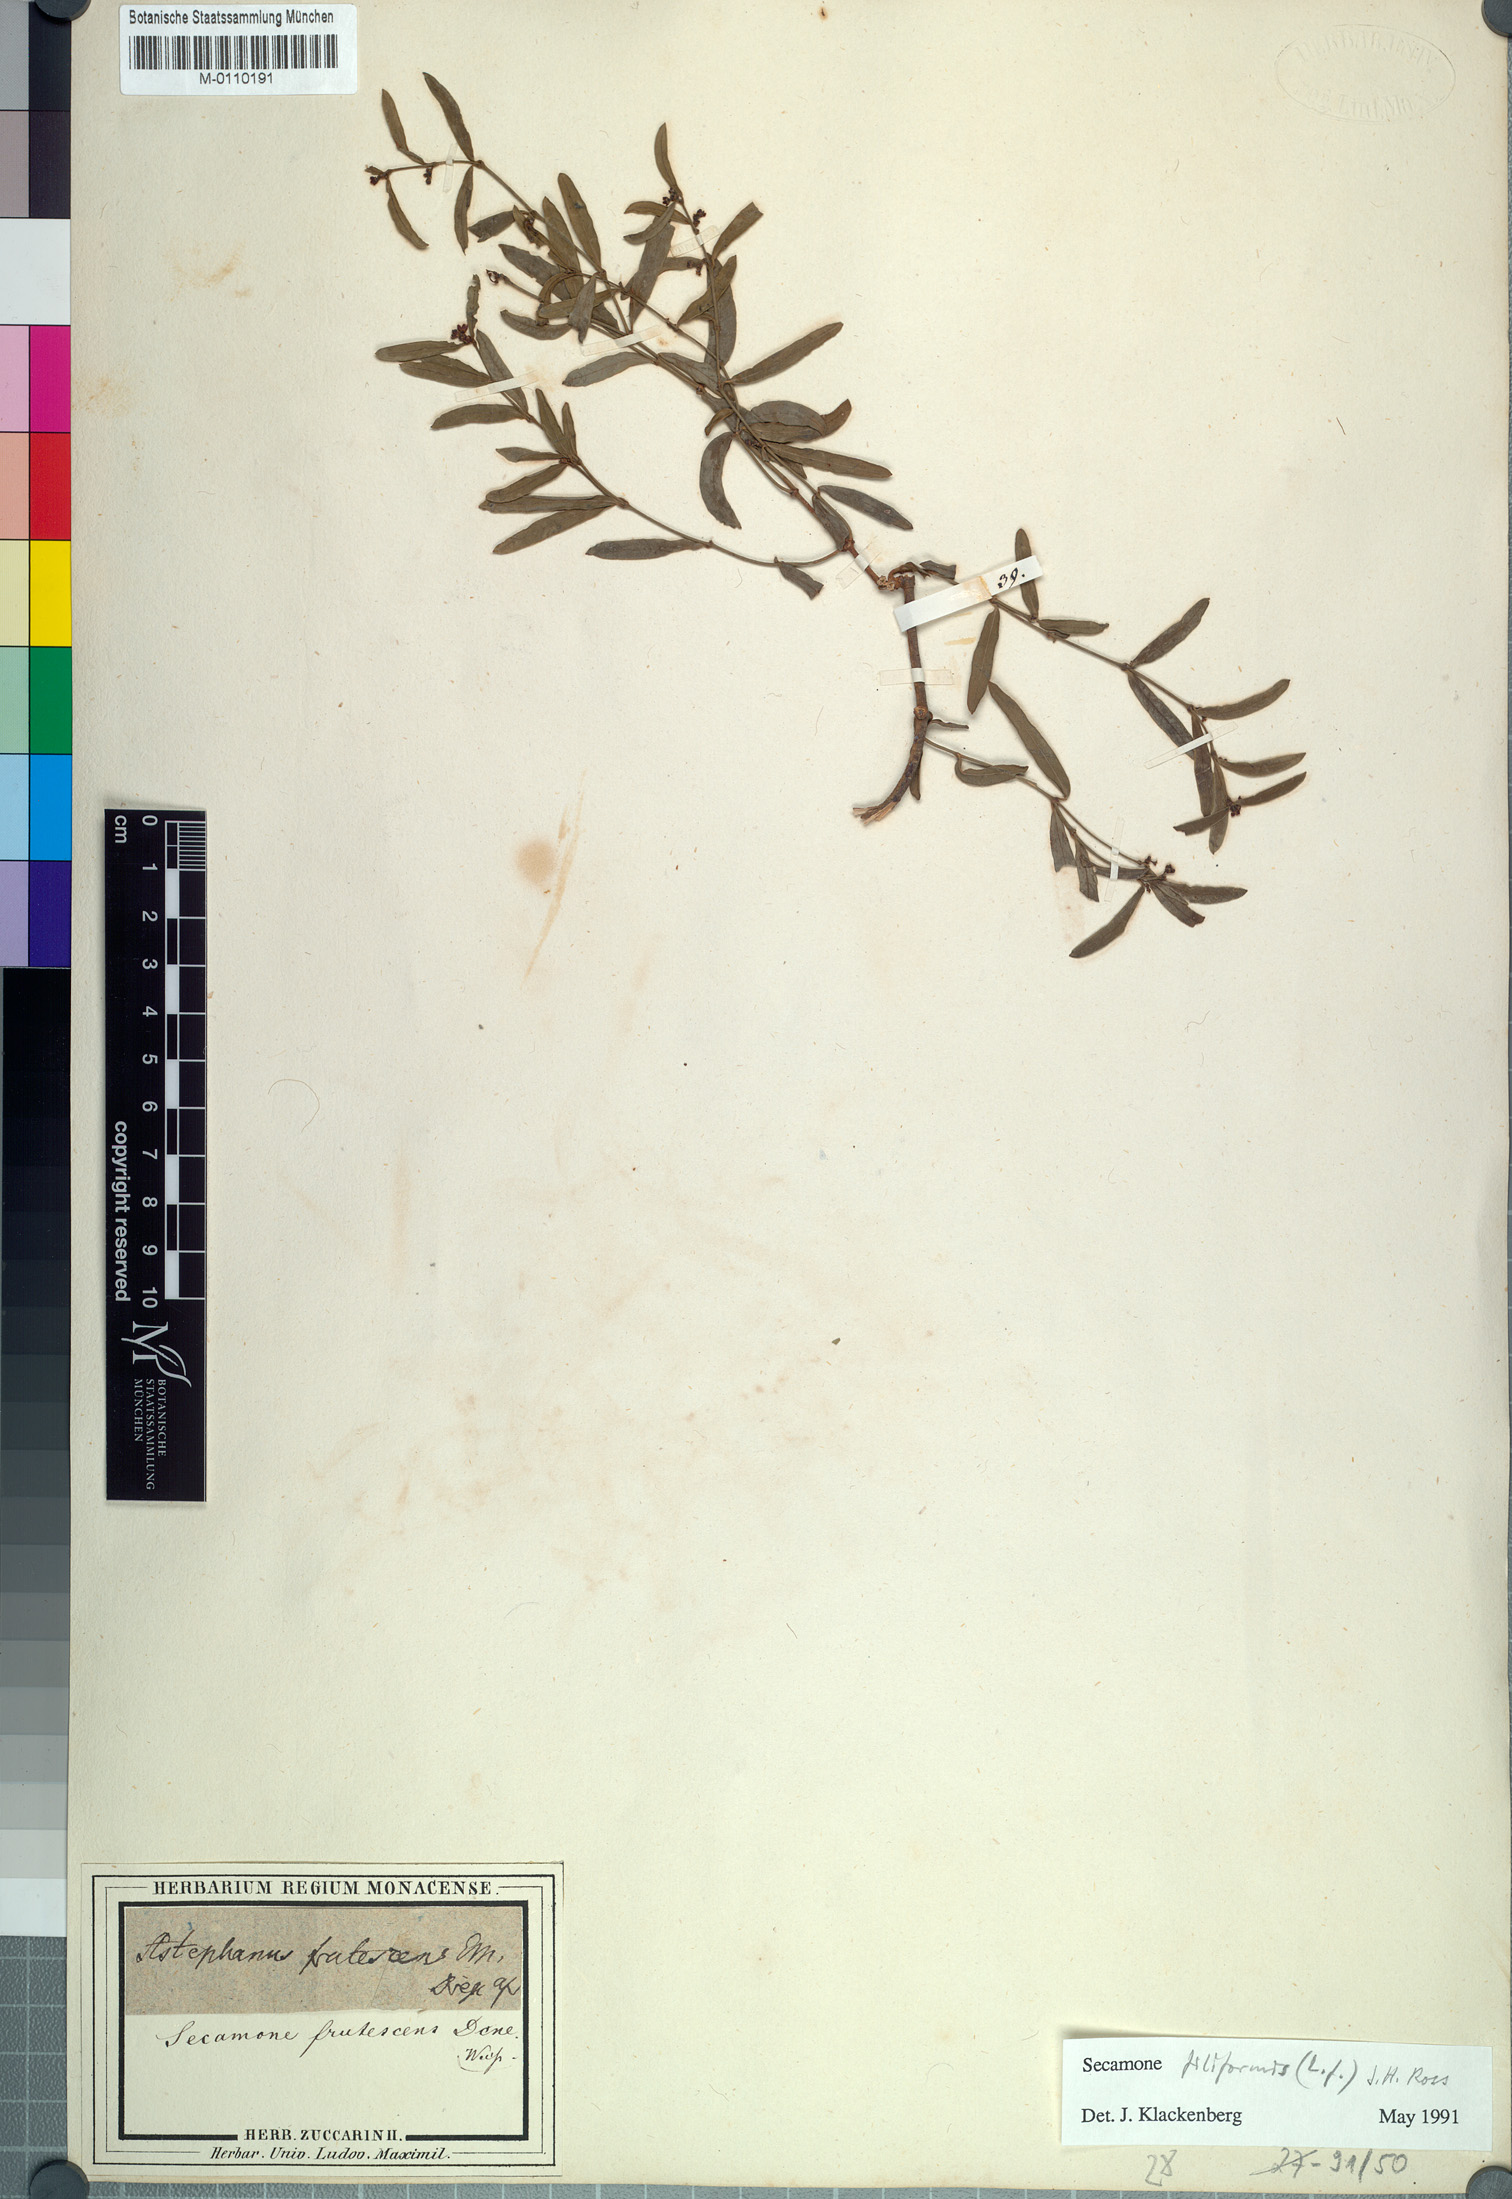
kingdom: Plantae
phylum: Tracheophyta
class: Magnoliopsida
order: Gentianales
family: Apocynaceae
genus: Secamone
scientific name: Secamone filiformis
